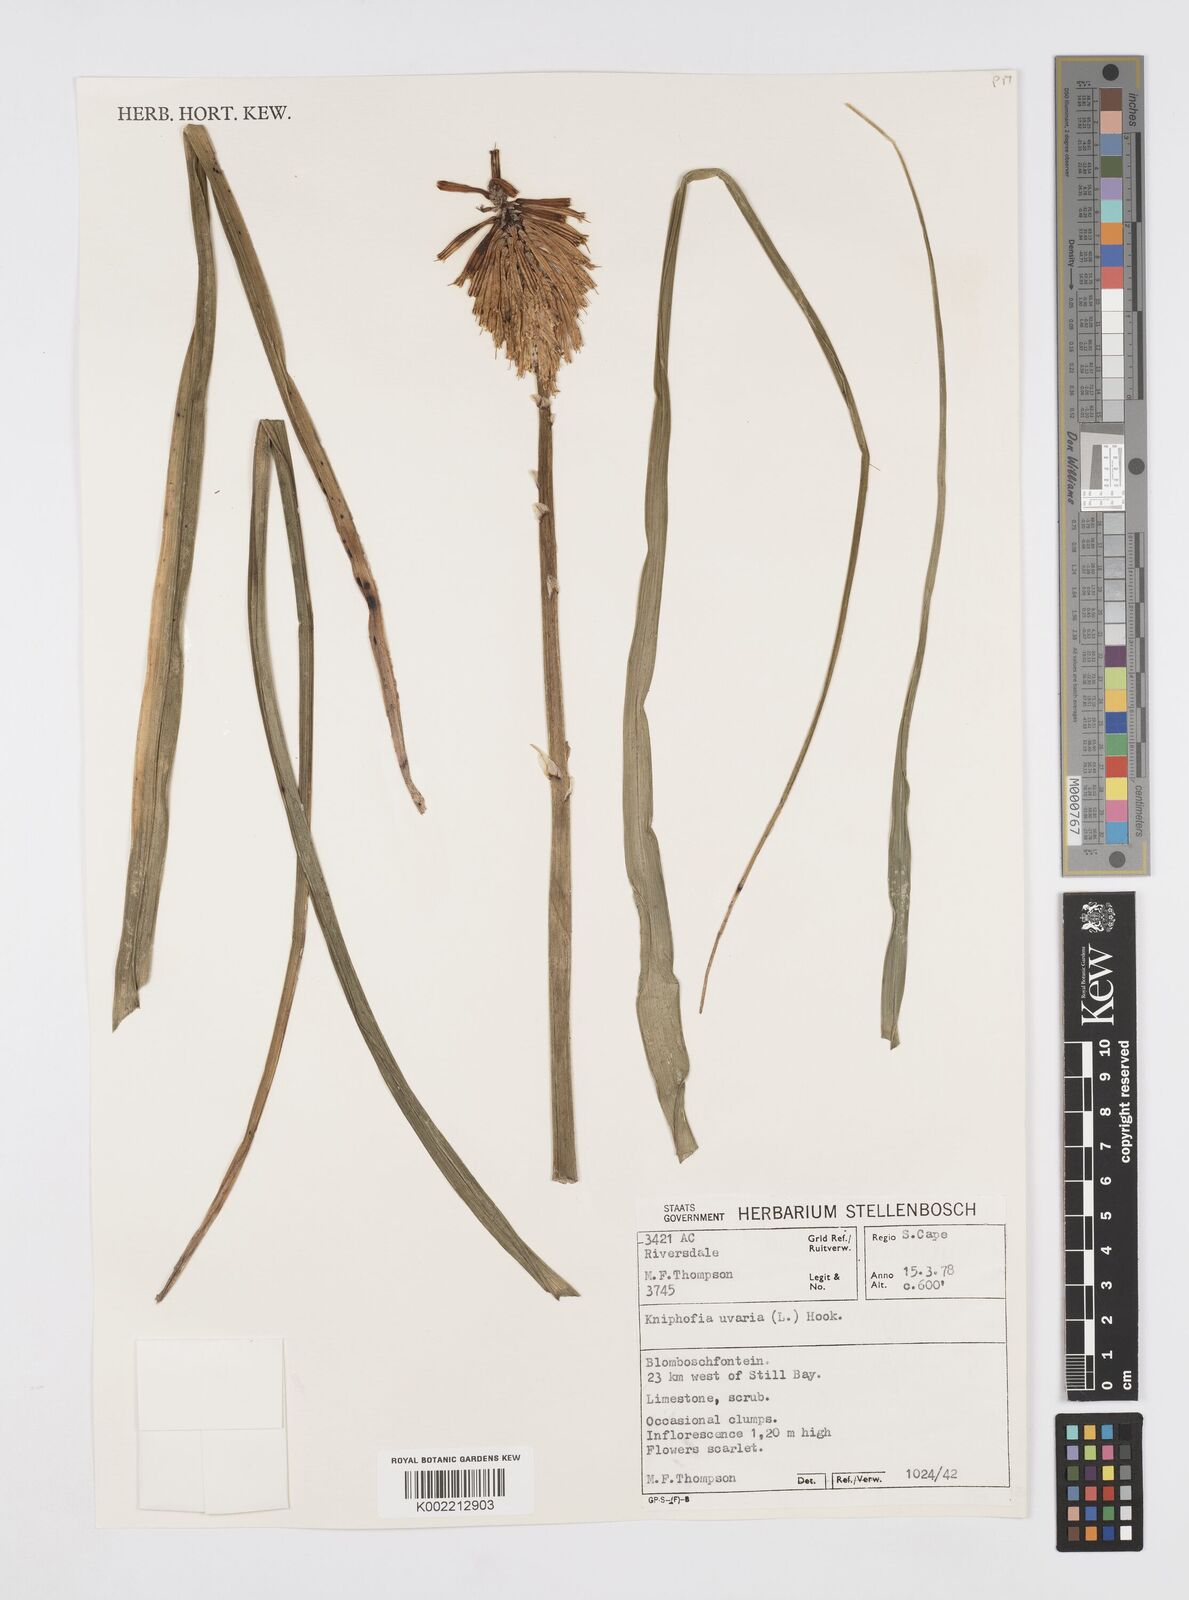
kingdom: Plantae
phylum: Tracheophyta
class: Liliopsida
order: Asparagales
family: Asphodelaceae
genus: Kniphofia
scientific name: Kniphofia uvaria
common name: Red-hot-poker
